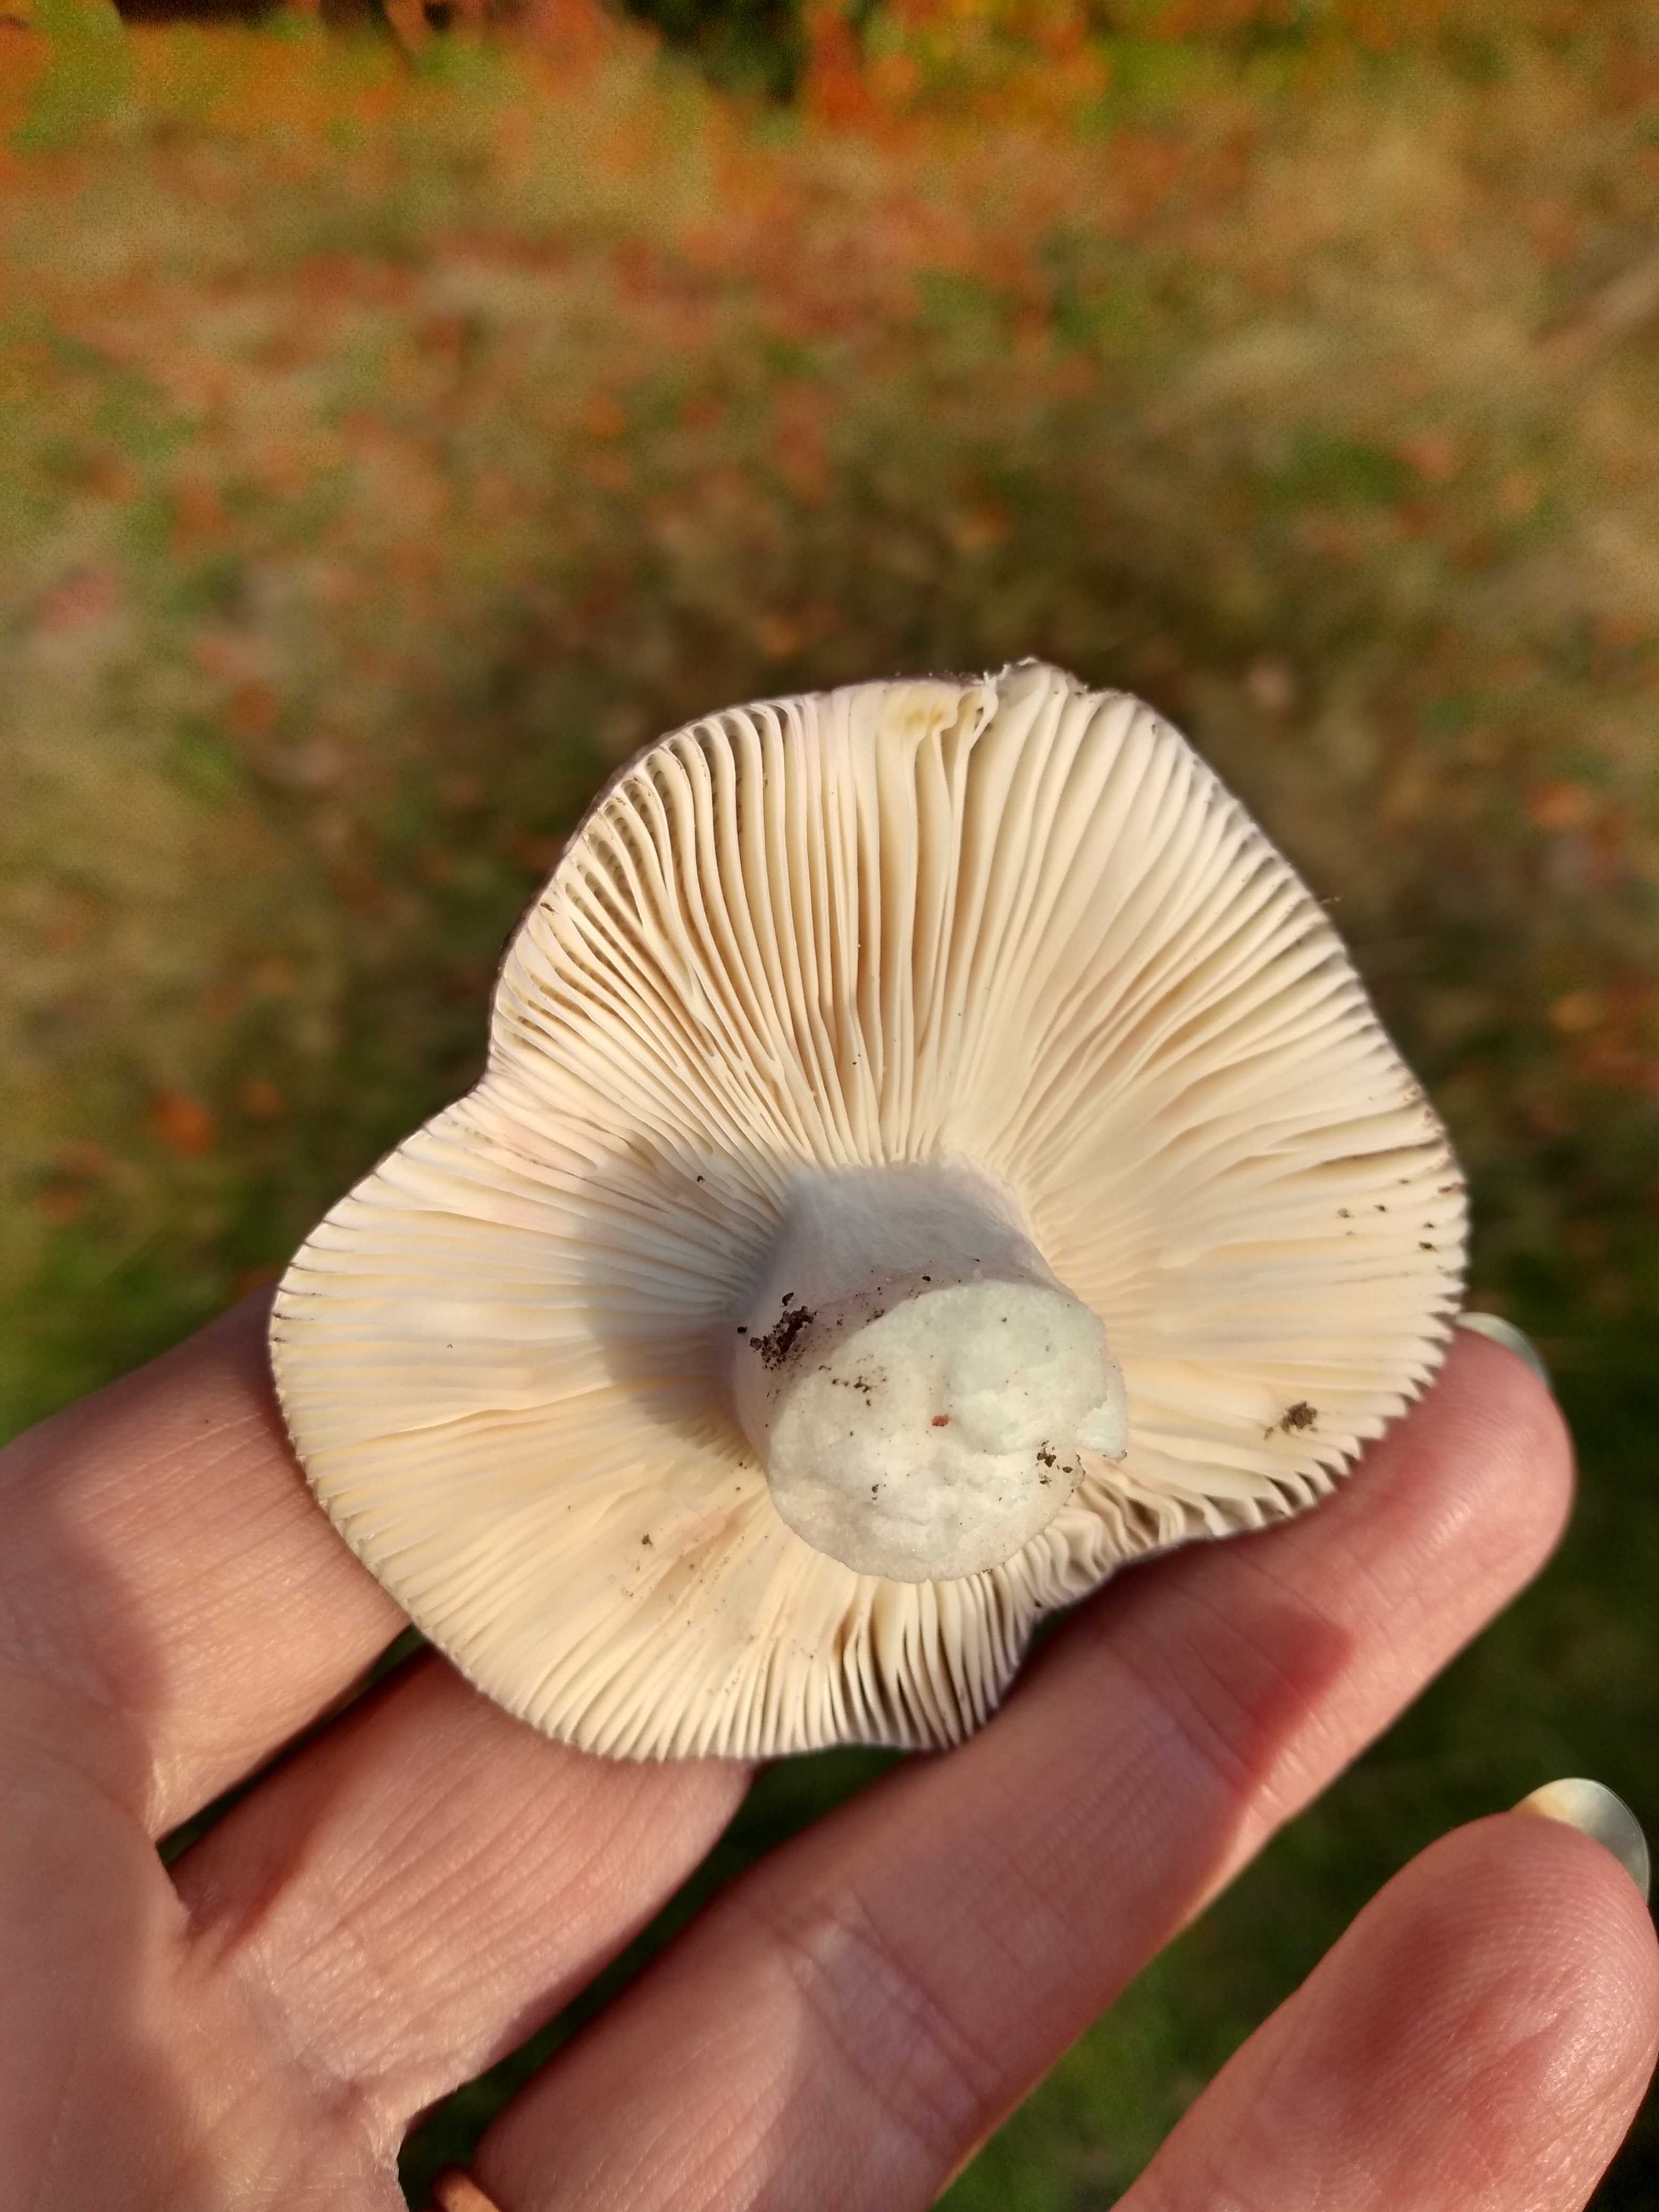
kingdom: Fungi
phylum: Basidiomycota
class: Agaricomycetes
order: Russulales
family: Russulaceae
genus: Russula
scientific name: Russula
